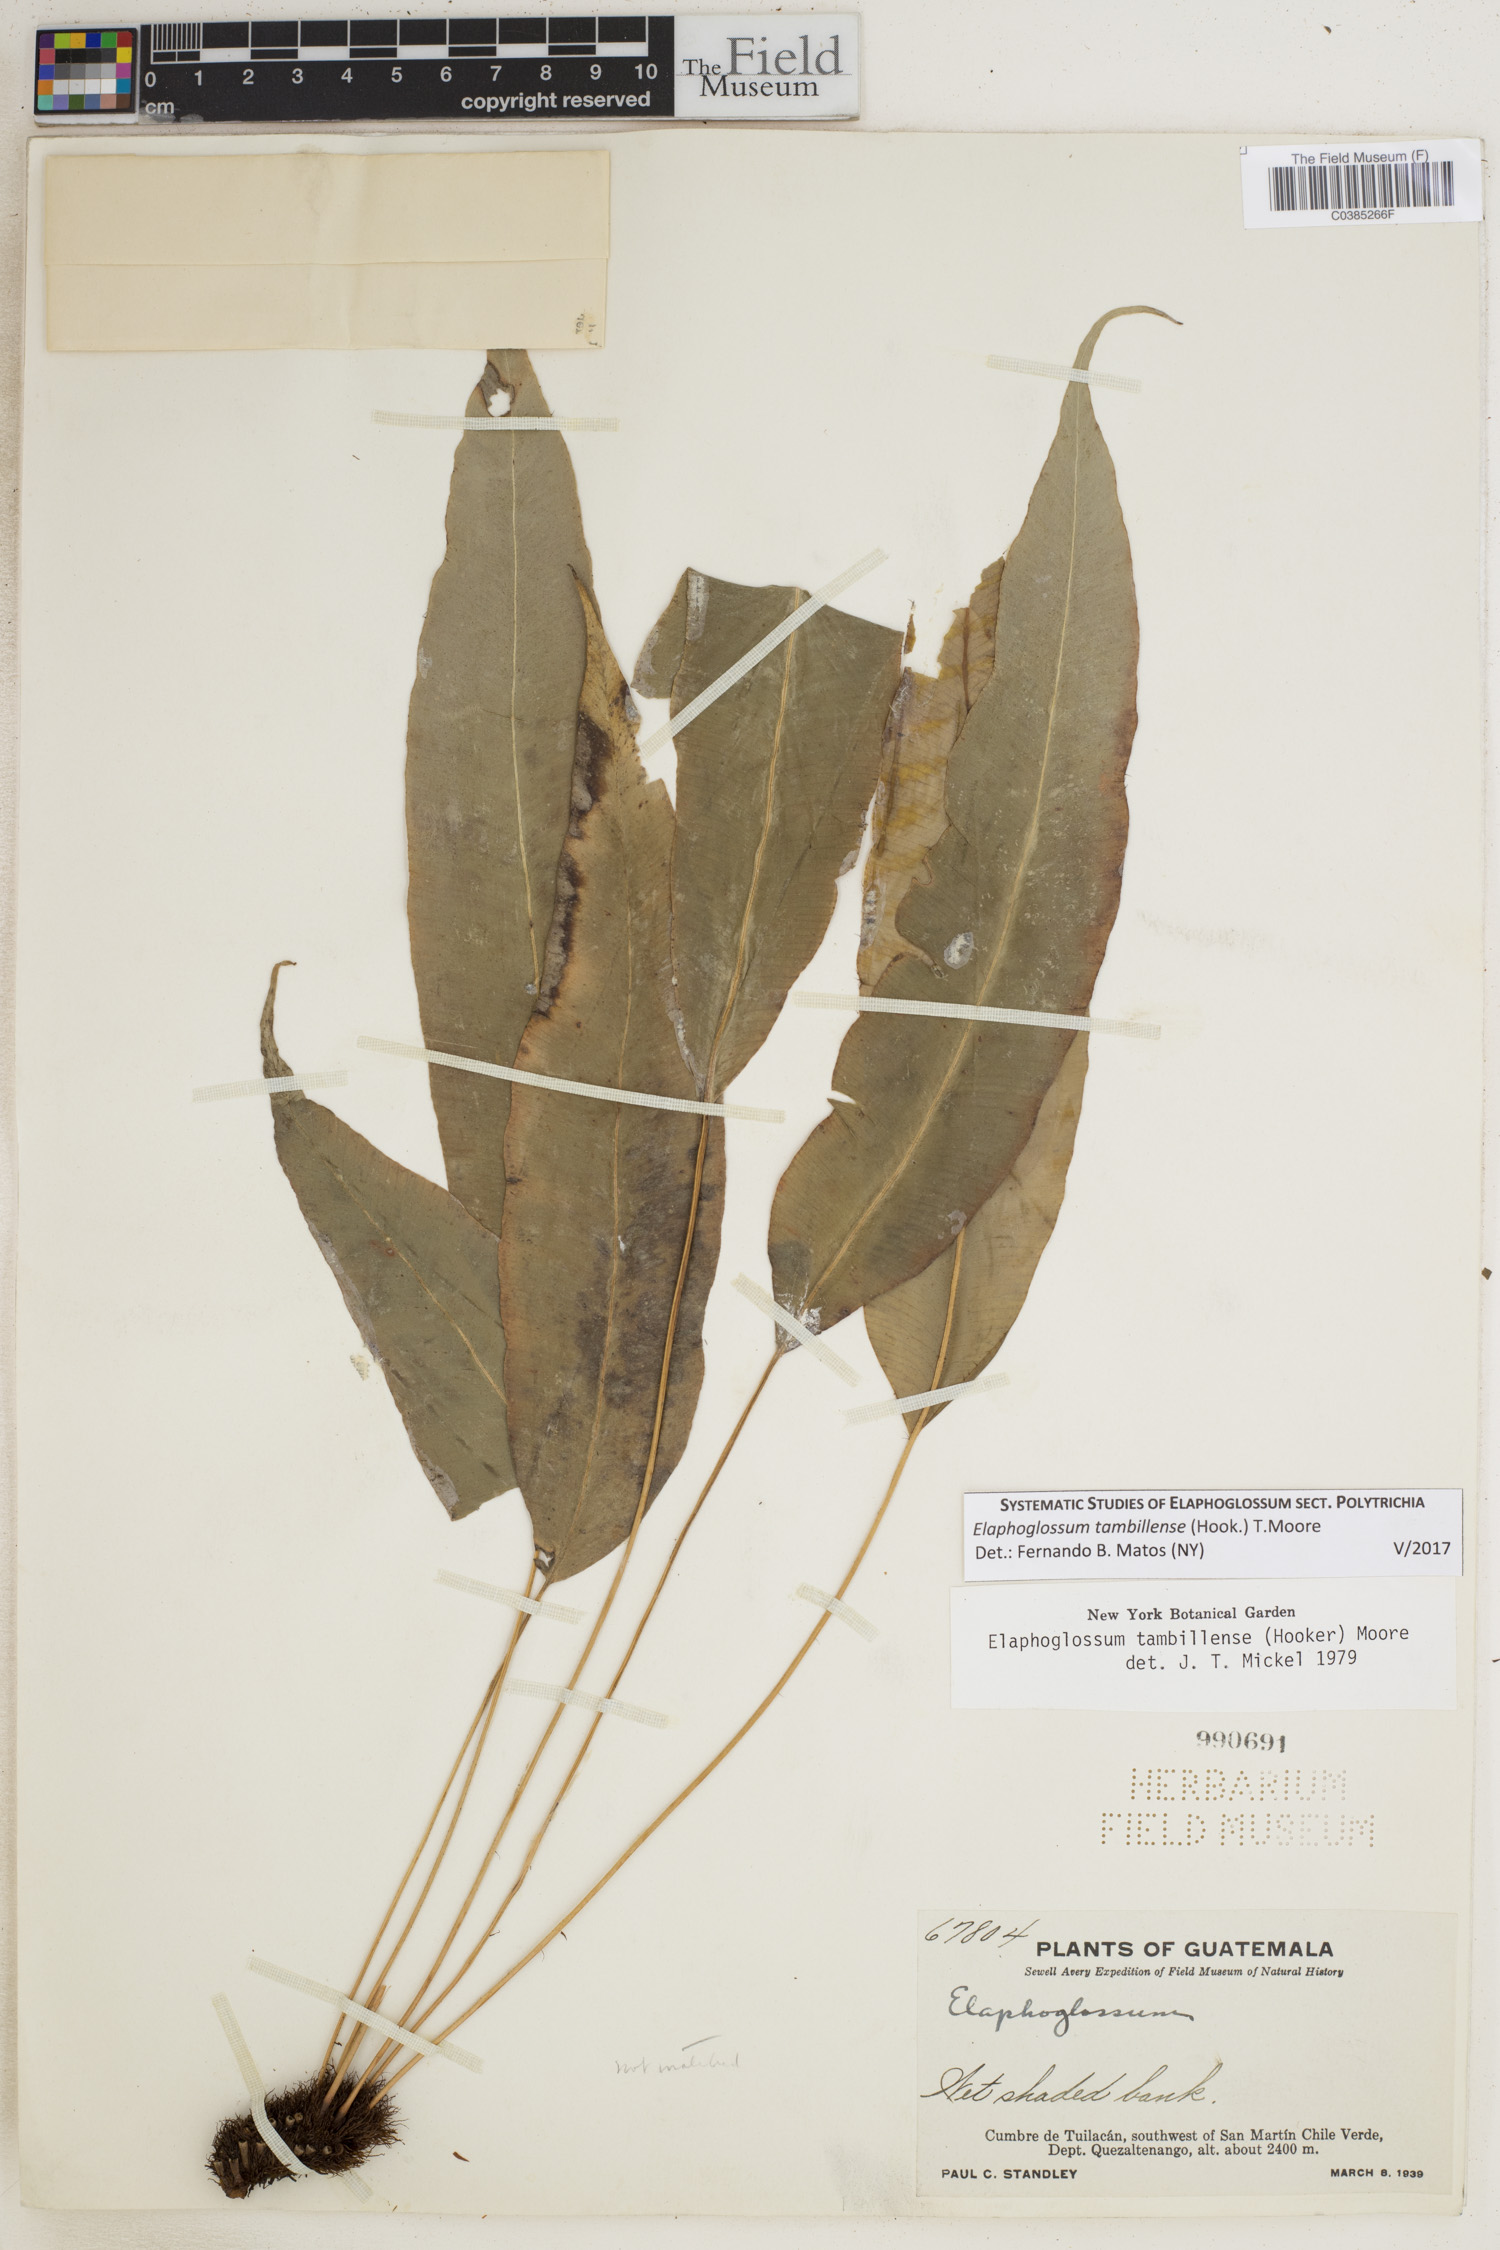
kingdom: Plantae
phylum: Tracheophyta
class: Polypodiopsida
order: Polypodiales
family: Dryopteridaceae
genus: Elaphoglossum
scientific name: Elaphoglossum tambillense
